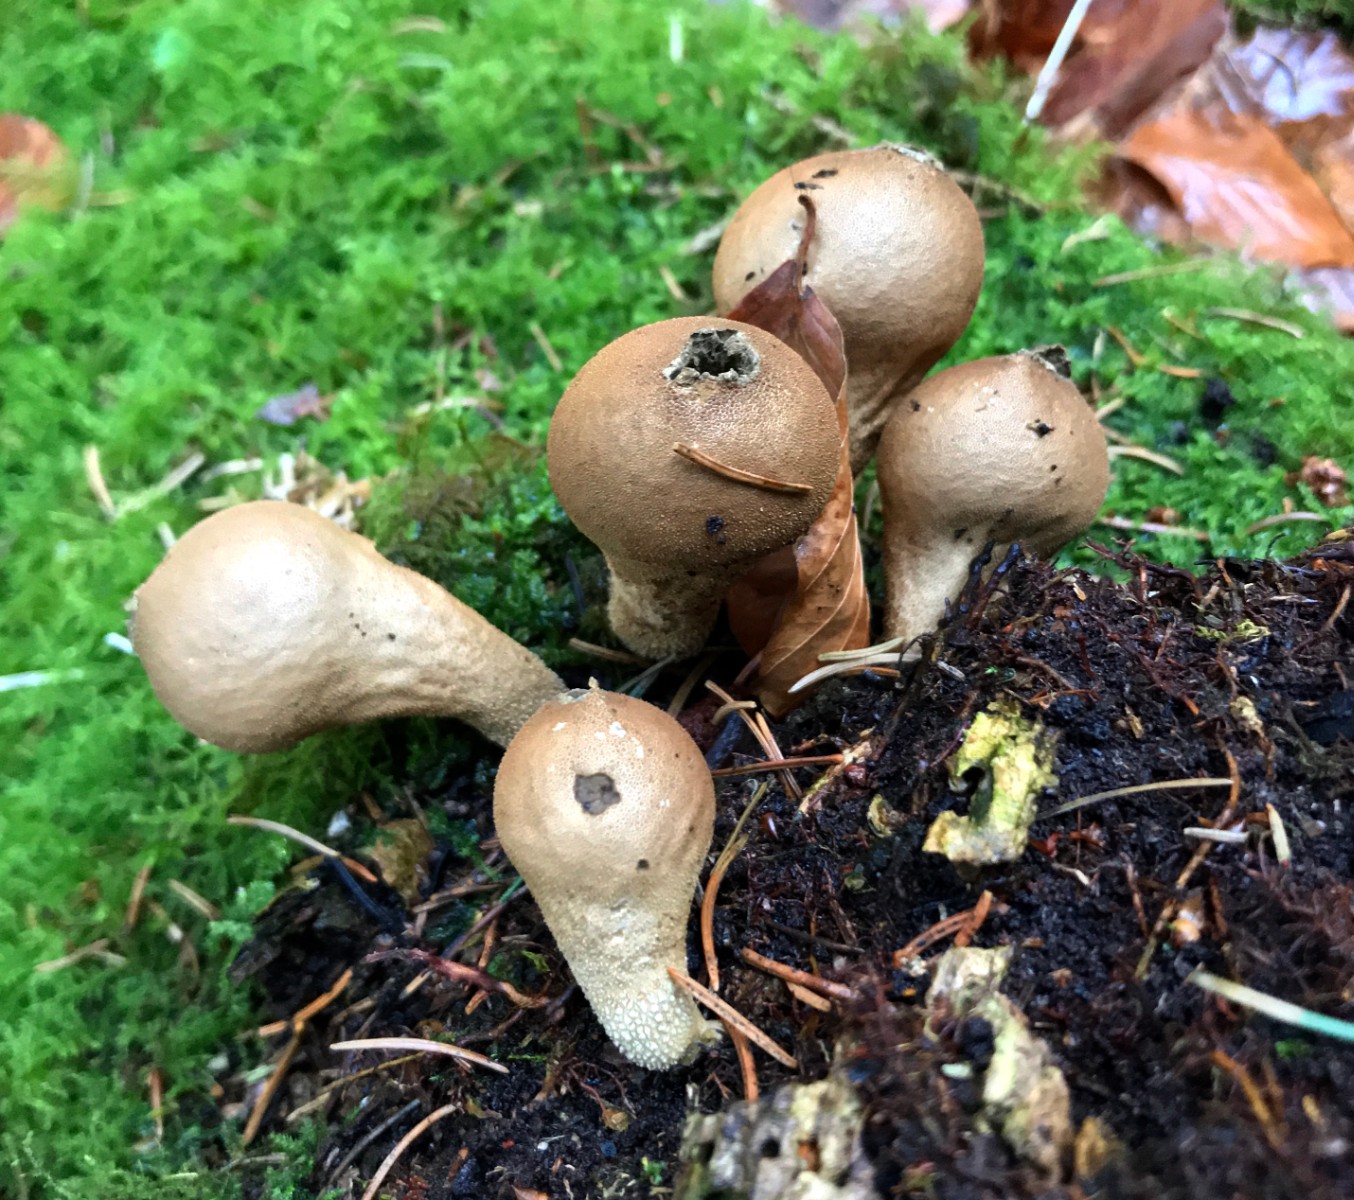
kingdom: Fungi
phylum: Basidiomycota
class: Agaricomycetes
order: Agaricales
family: Lycoperdaceae
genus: Apioperdon
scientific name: Apioperdon pyriforme
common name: pære-støvbold
